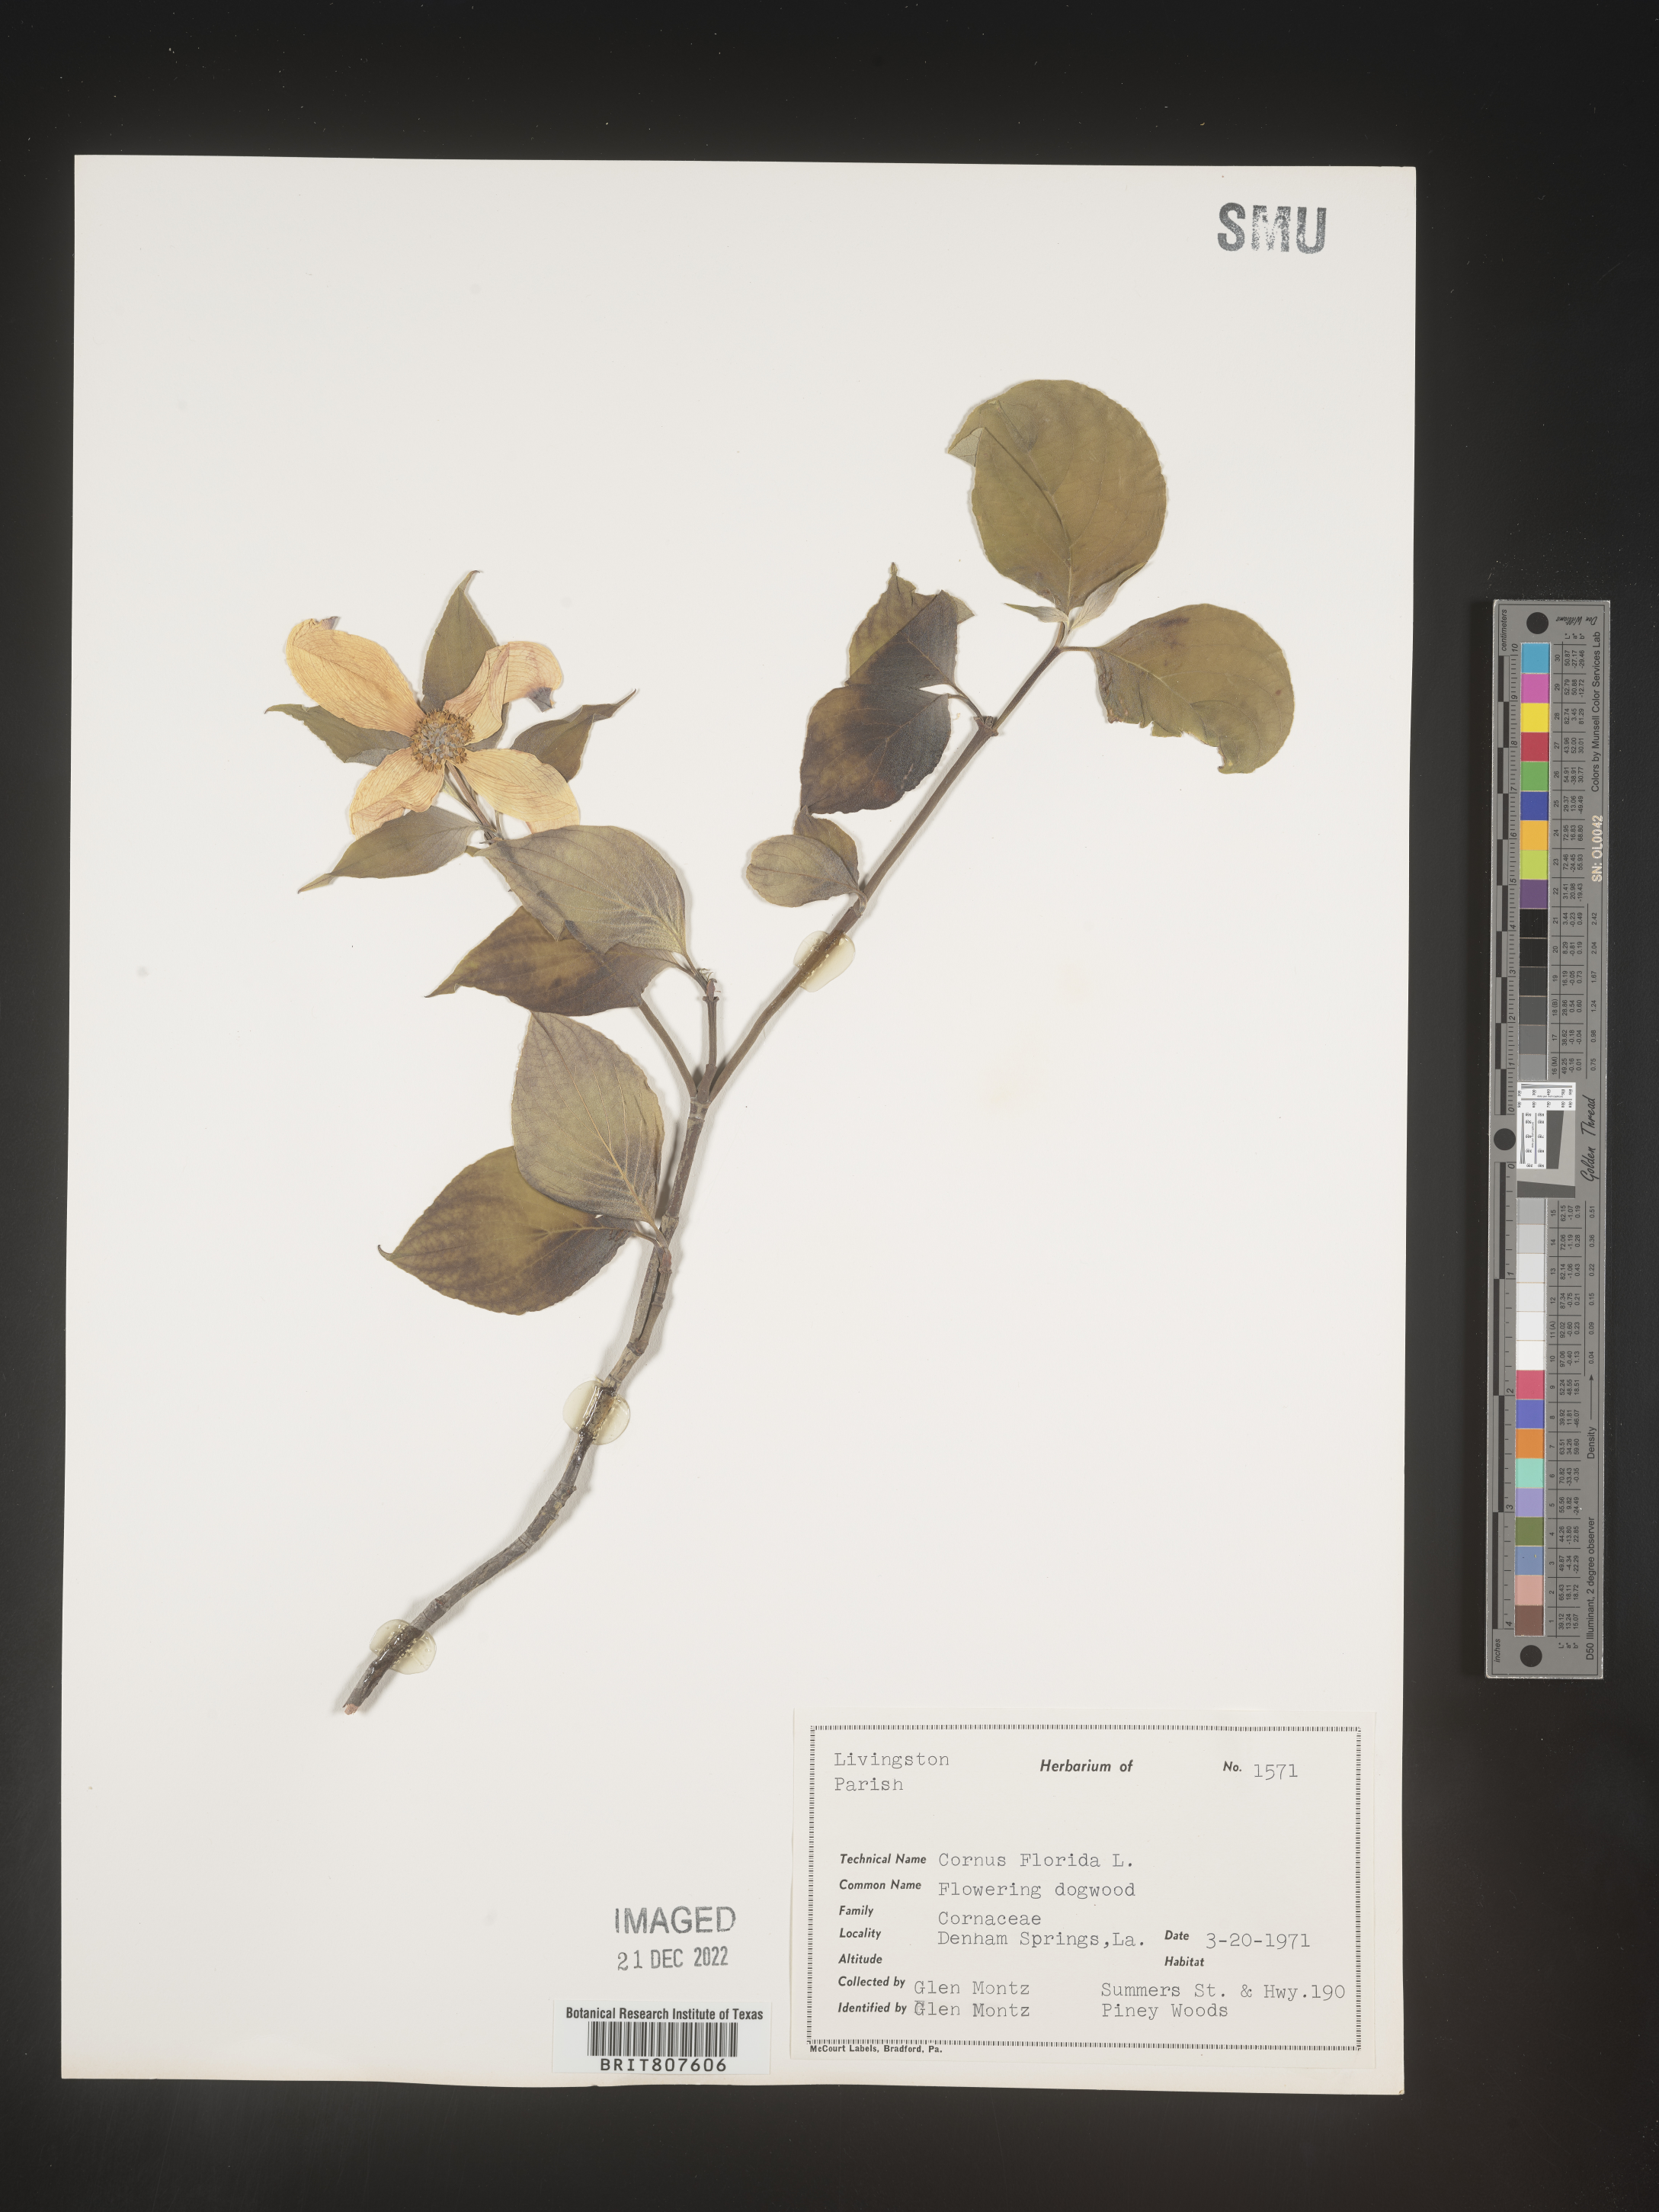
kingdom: Plantae
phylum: Tracheophyta
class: Magnoliopsida
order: Cornales
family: Cornaceae
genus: Cornus
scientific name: Cornus florida
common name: Flowering dogwood
